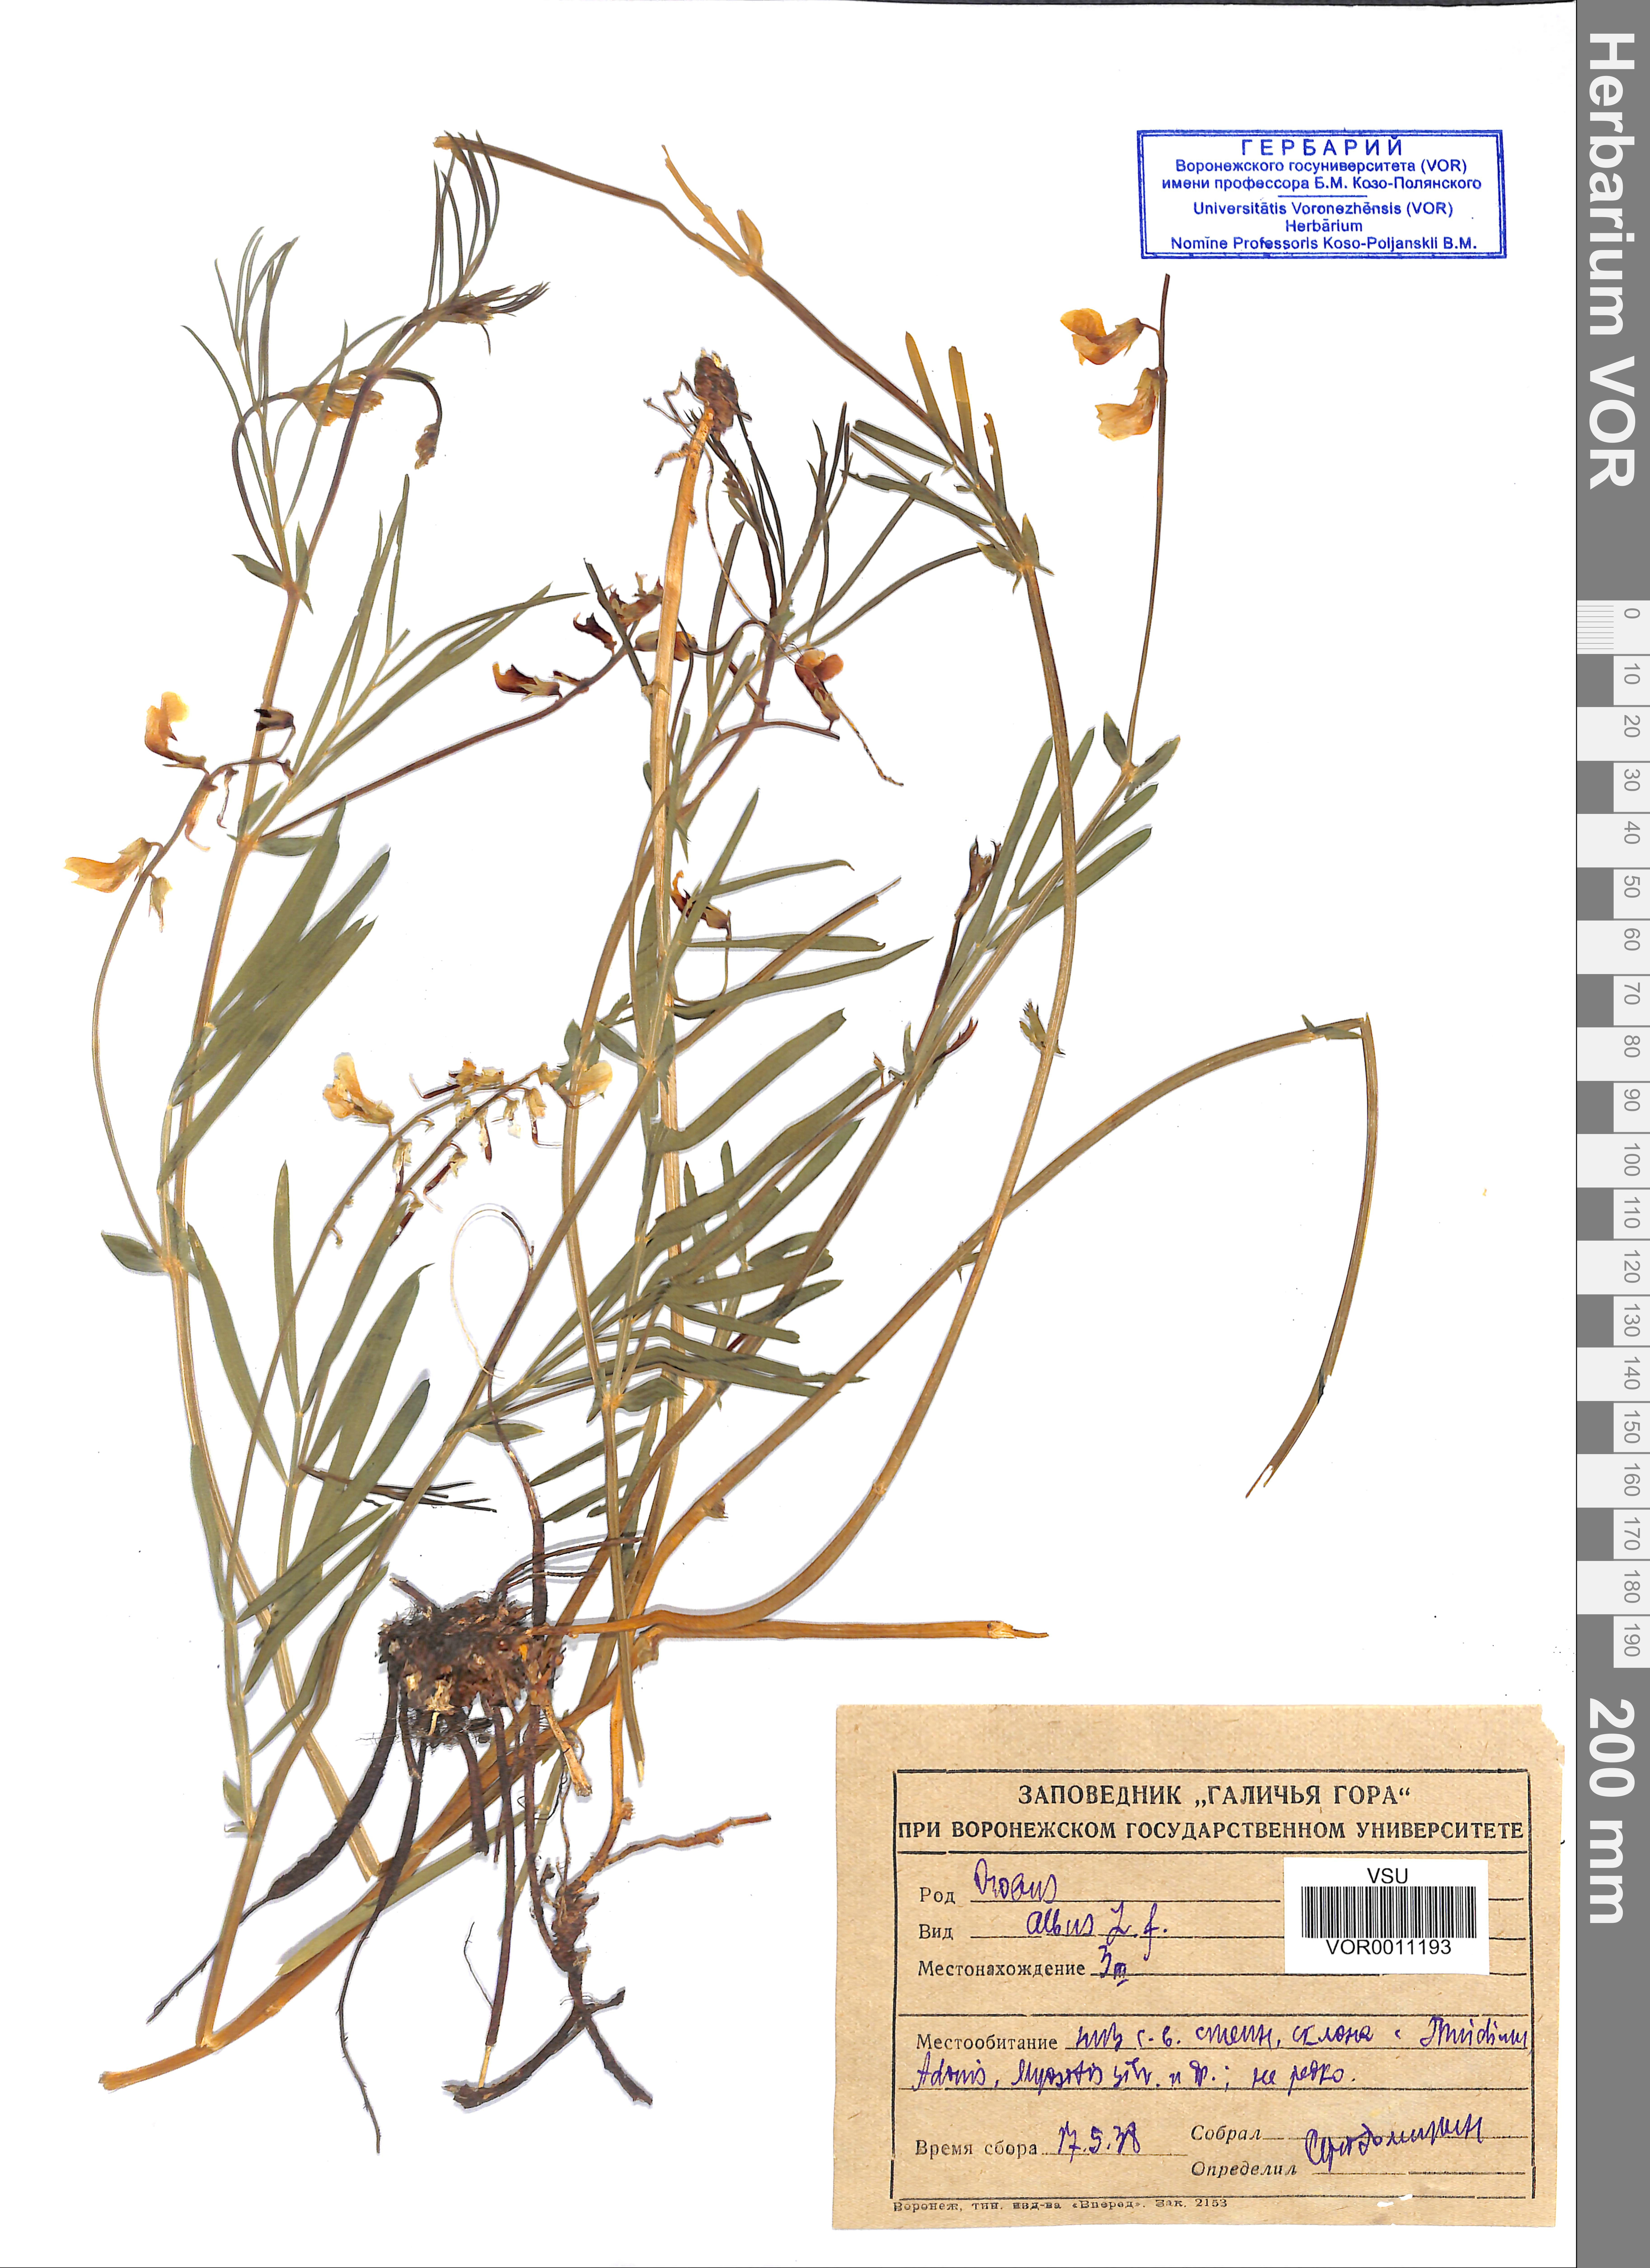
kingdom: Plantae
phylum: Tracheophyta
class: Magnoliopsida
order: Fabales
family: Fabaceae
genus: Lathyrus
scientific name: Lathyrus pannonicus
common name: Pea
